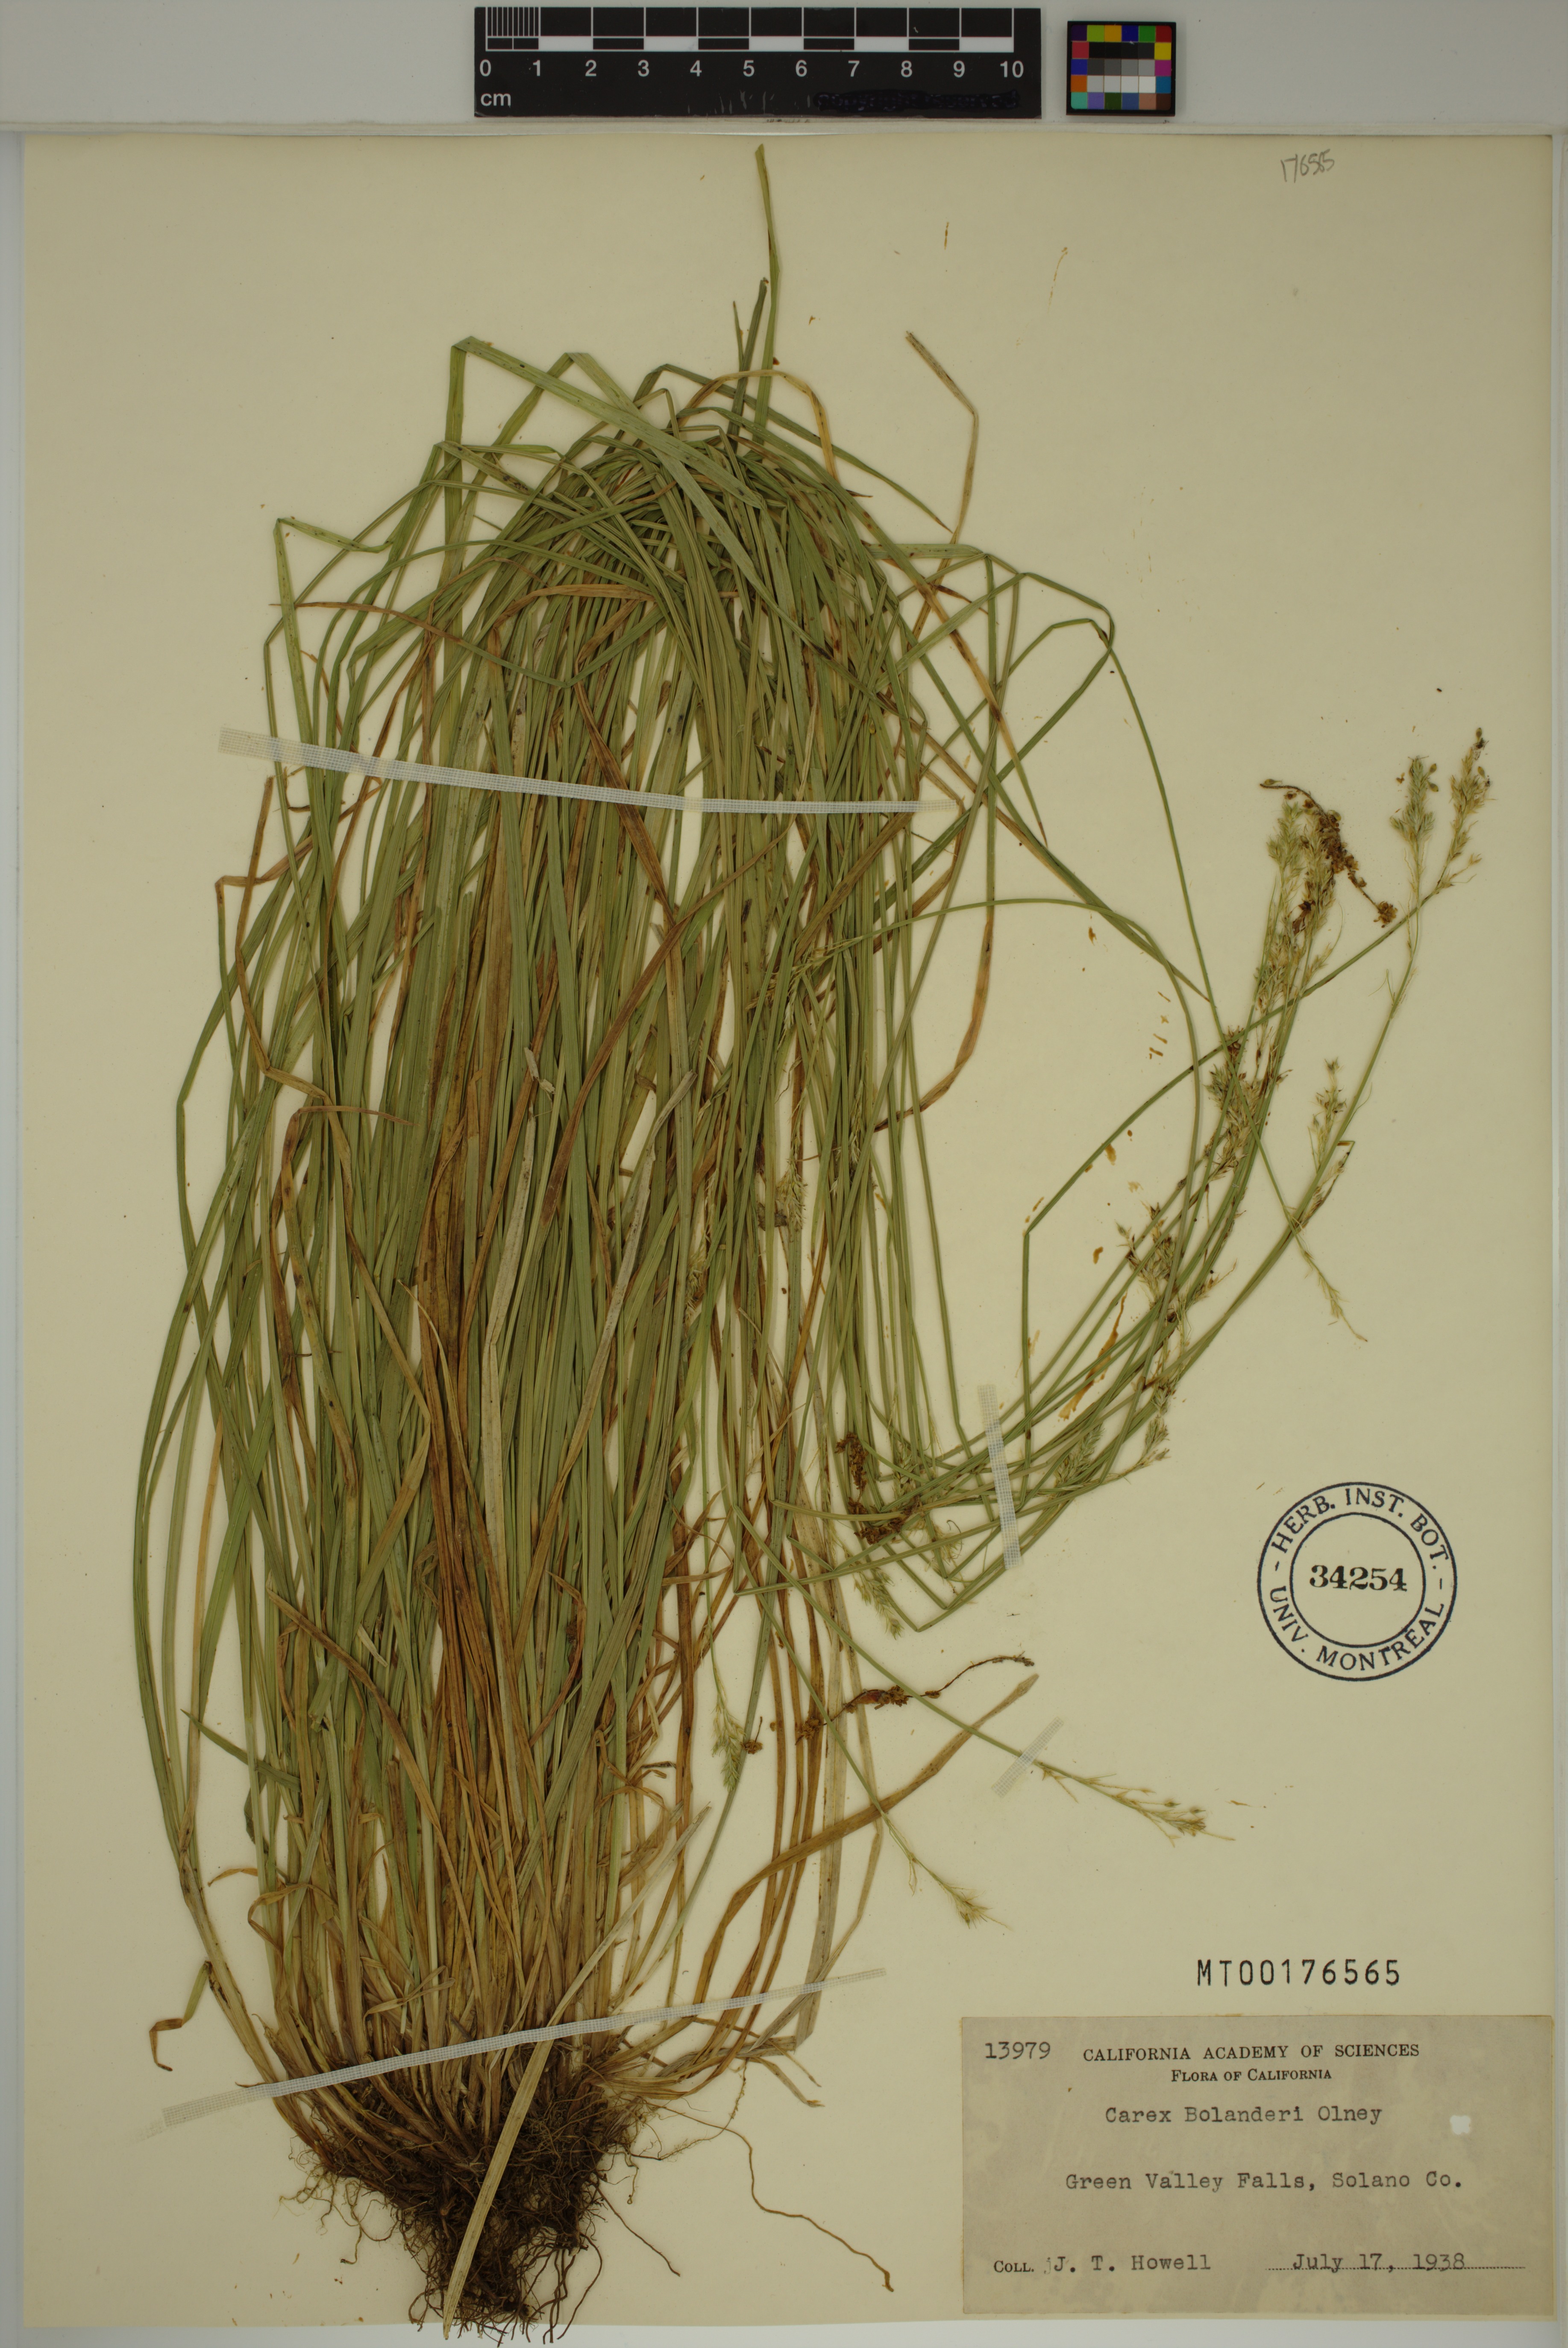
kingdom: Plantae
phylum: Tracheophyta
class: Liliopsida
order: Poales
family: Cyperaceae
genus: Carex
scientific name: Carex bolanderi
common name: Bolander's sedge
